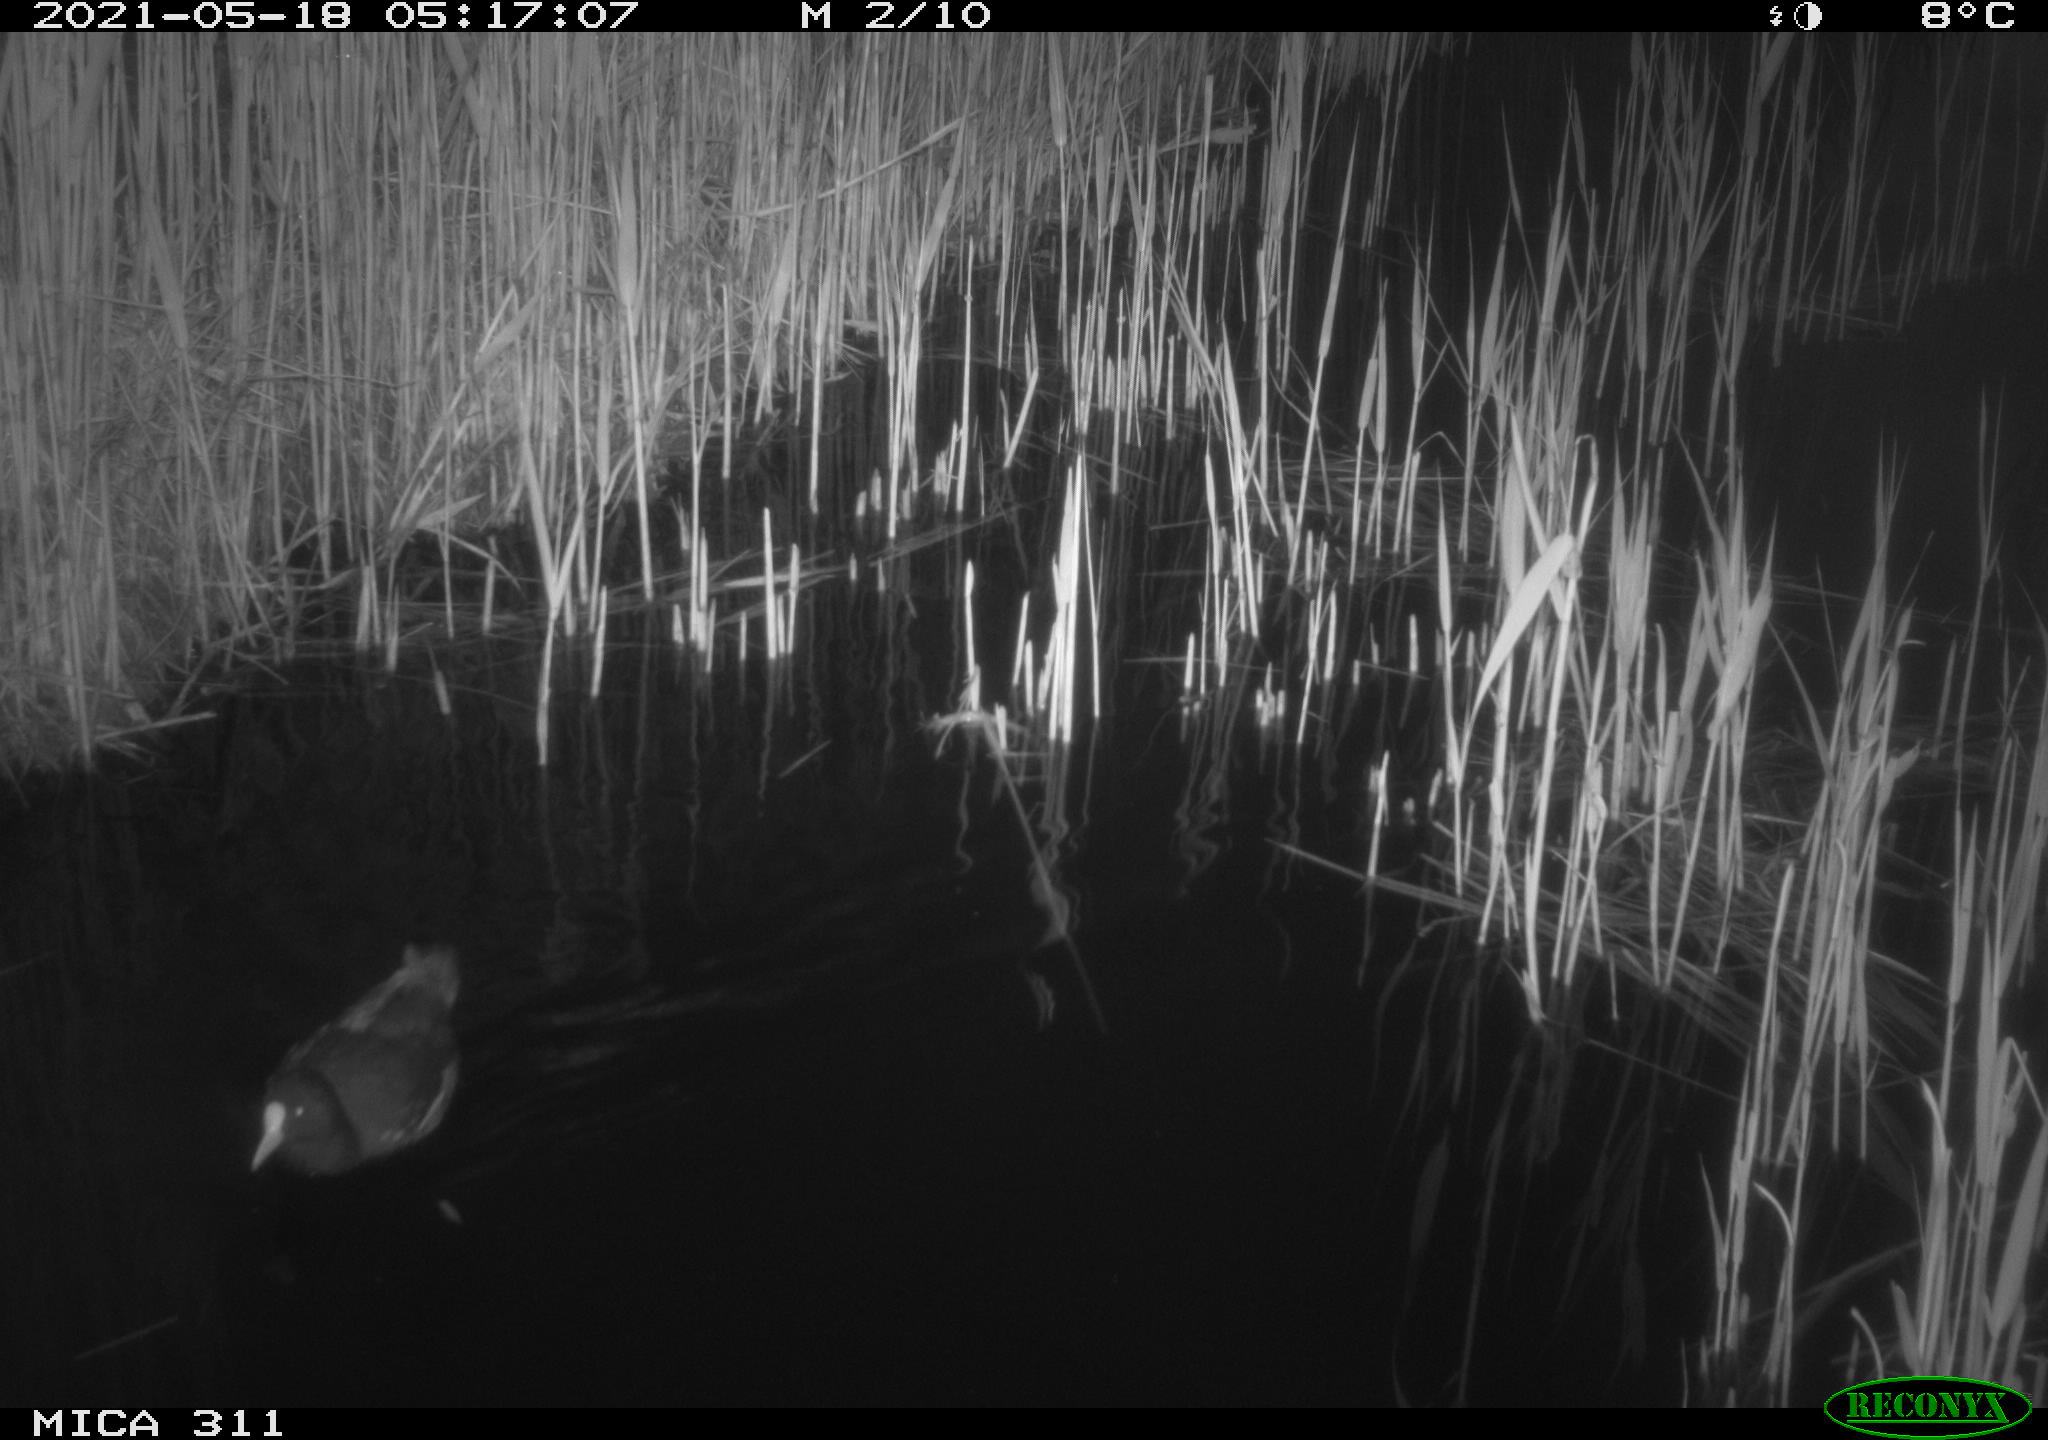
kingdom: Animalia
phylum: Chordata
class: Aves
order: Gruiformes
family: Rallidae
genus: Gallinula
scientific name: Gallinula chloropus
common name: Common moorhen
